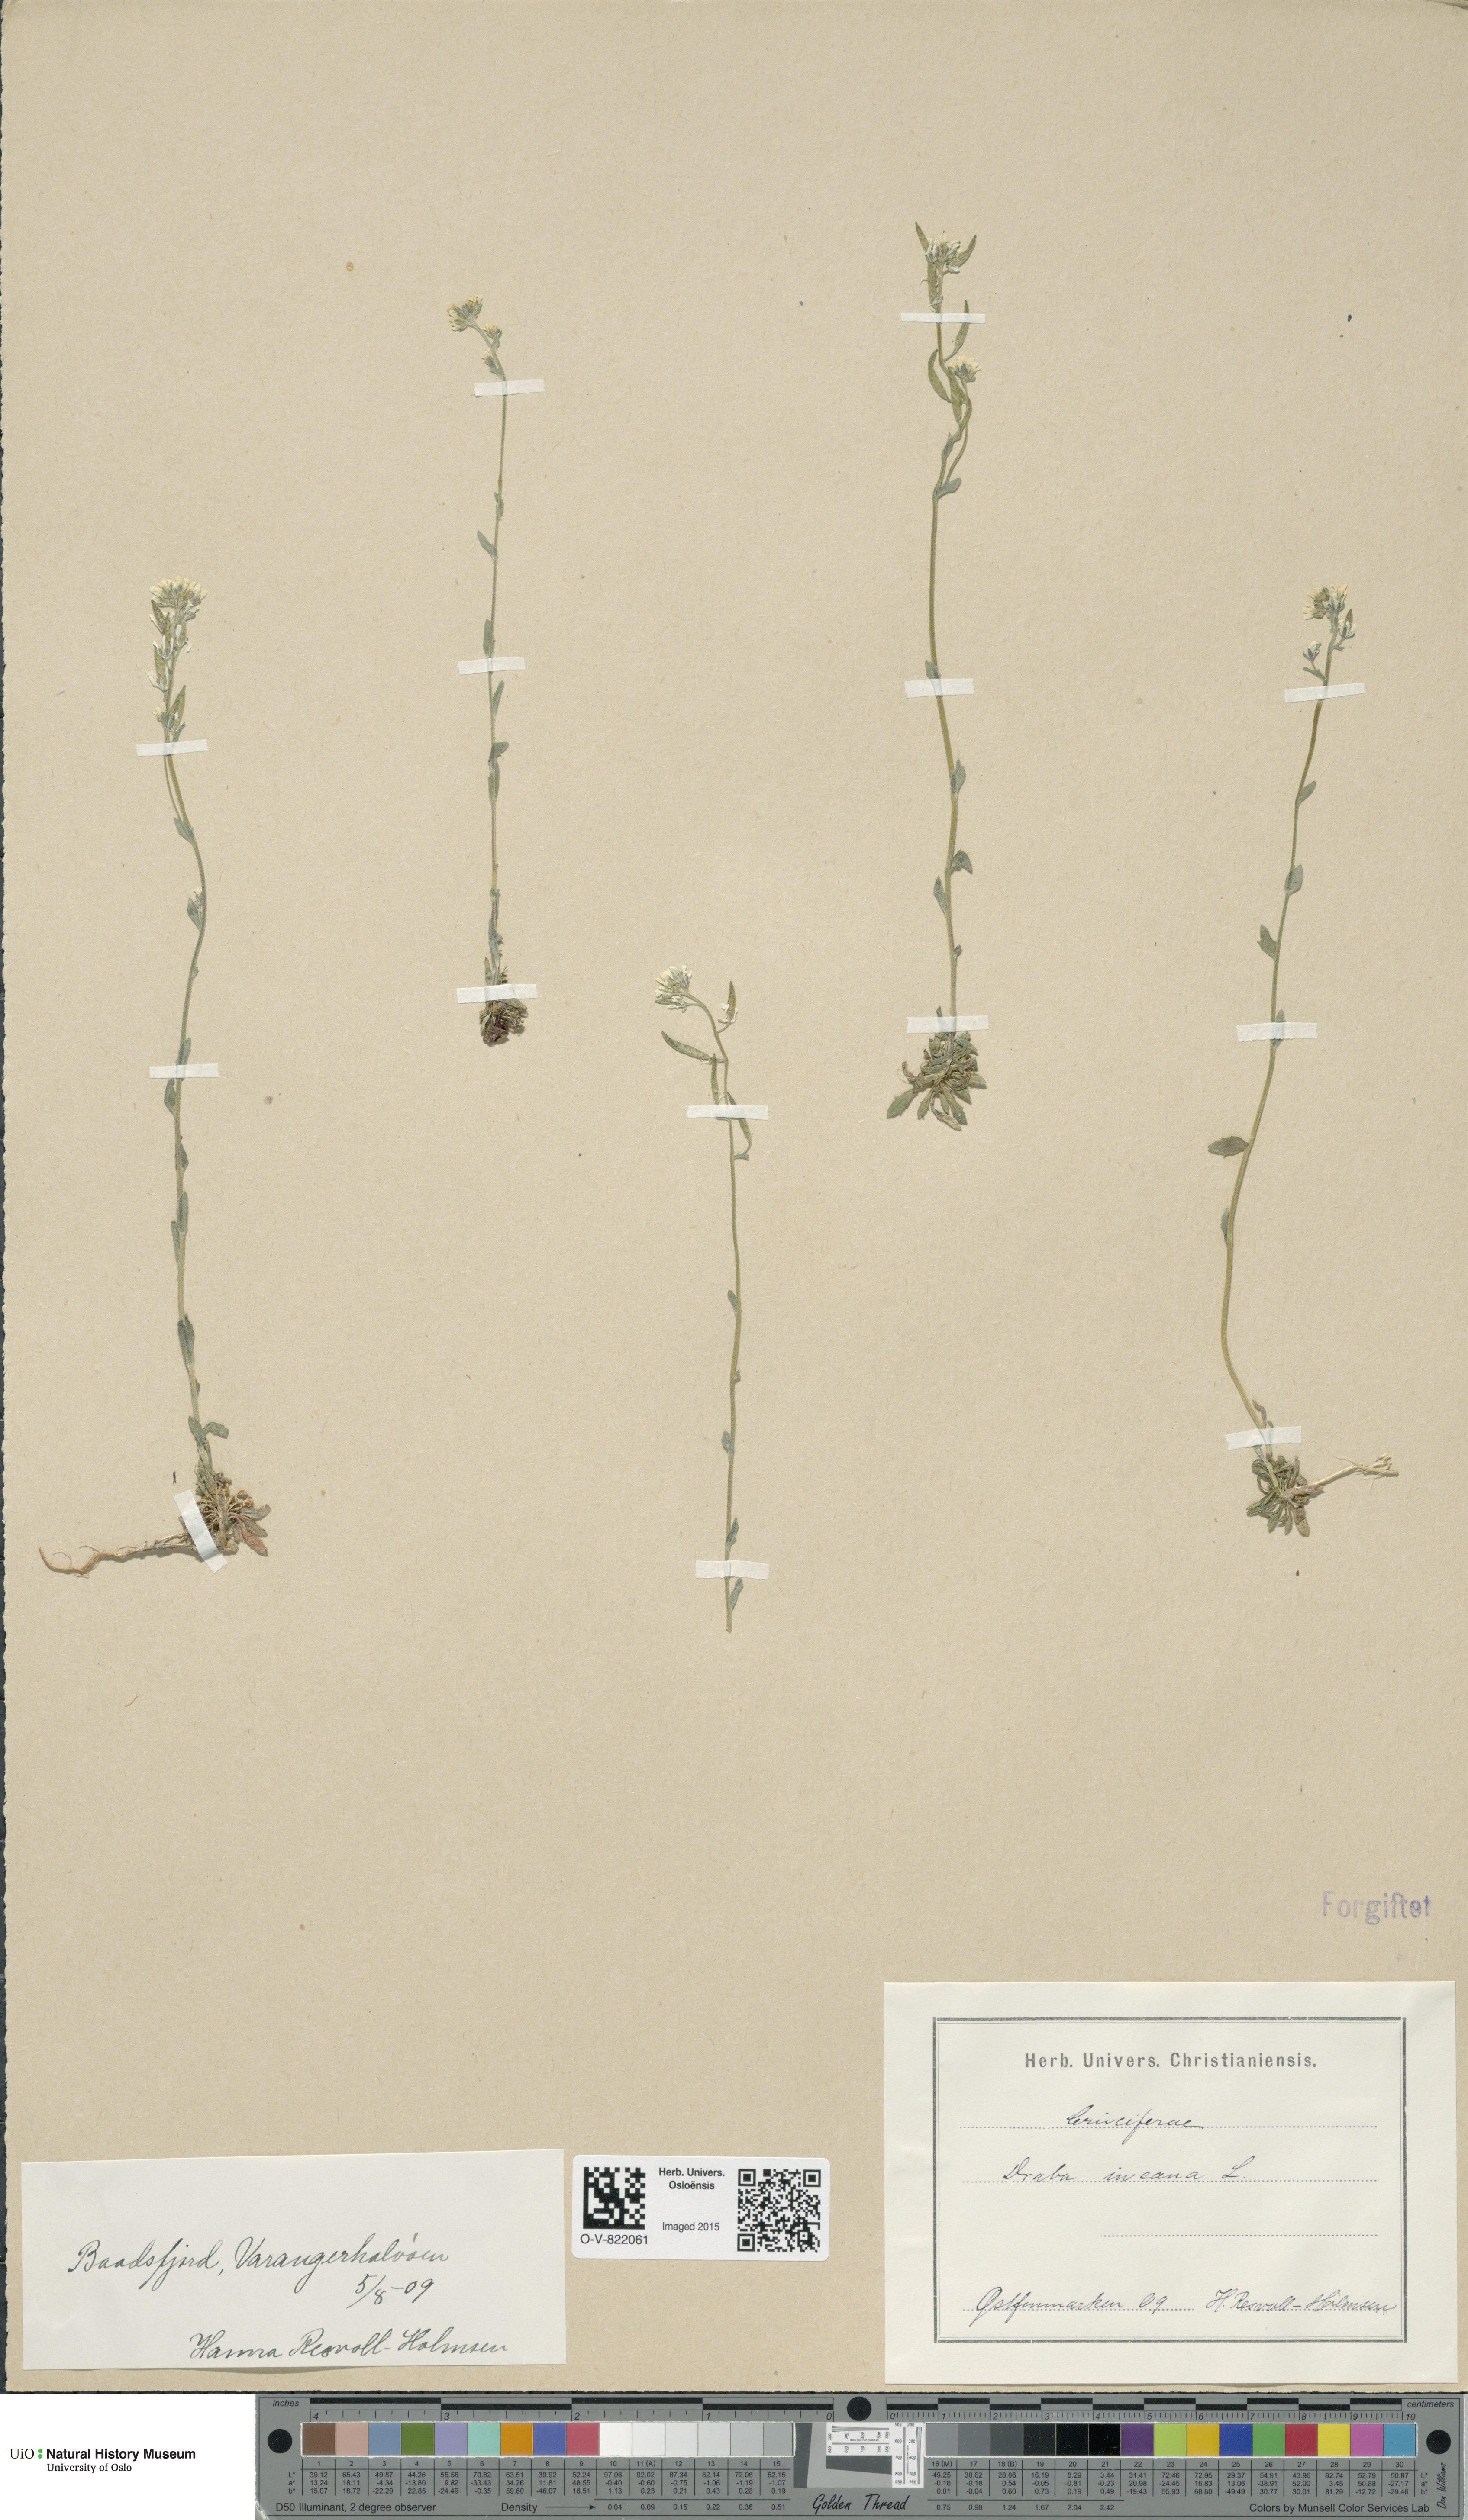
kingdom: Plantae
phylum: Tracheophyta
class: Magnoliopsida
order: Brassicales
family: Brassicaceae
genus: Draba
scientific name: Draba incana
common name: Hoary whitlow-grass
